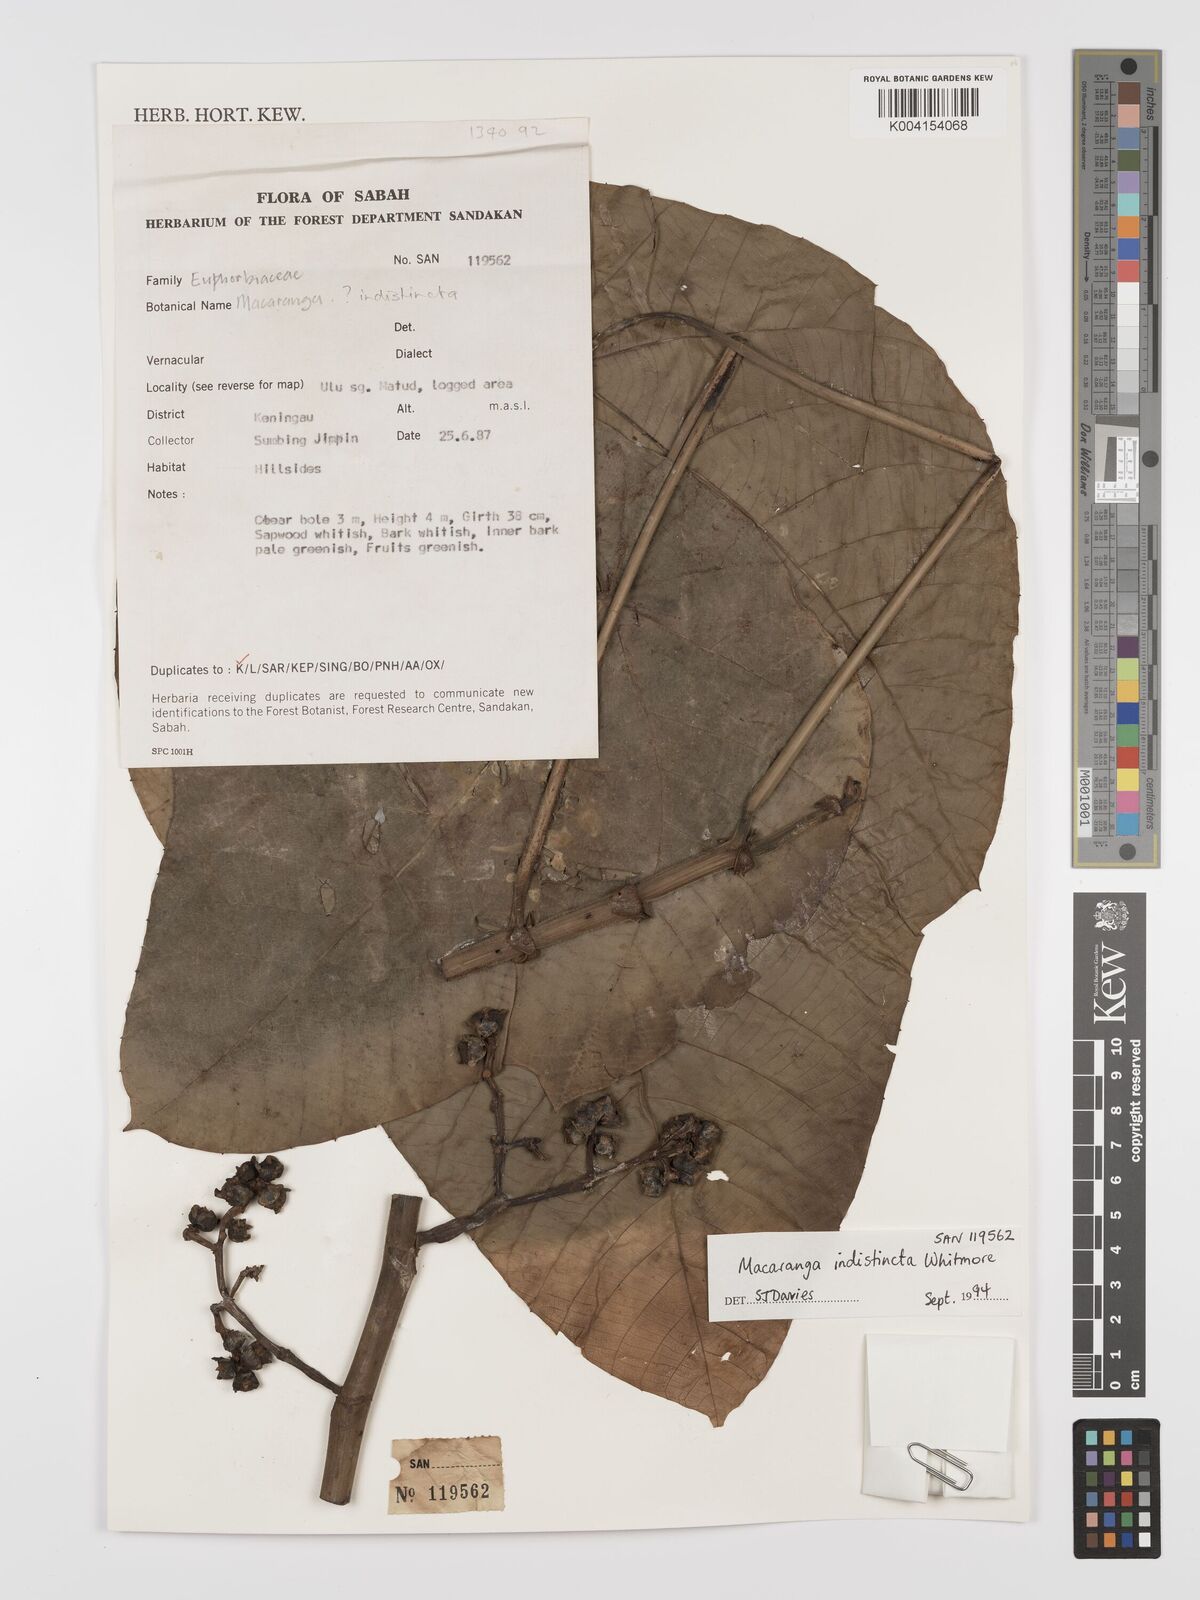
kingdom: Plantae
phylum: Tracheophyta
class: Magnoliopsida
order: Malpighiales
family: Euphorbiaceae
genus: Macaranga
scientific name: Macaranga indistincta
